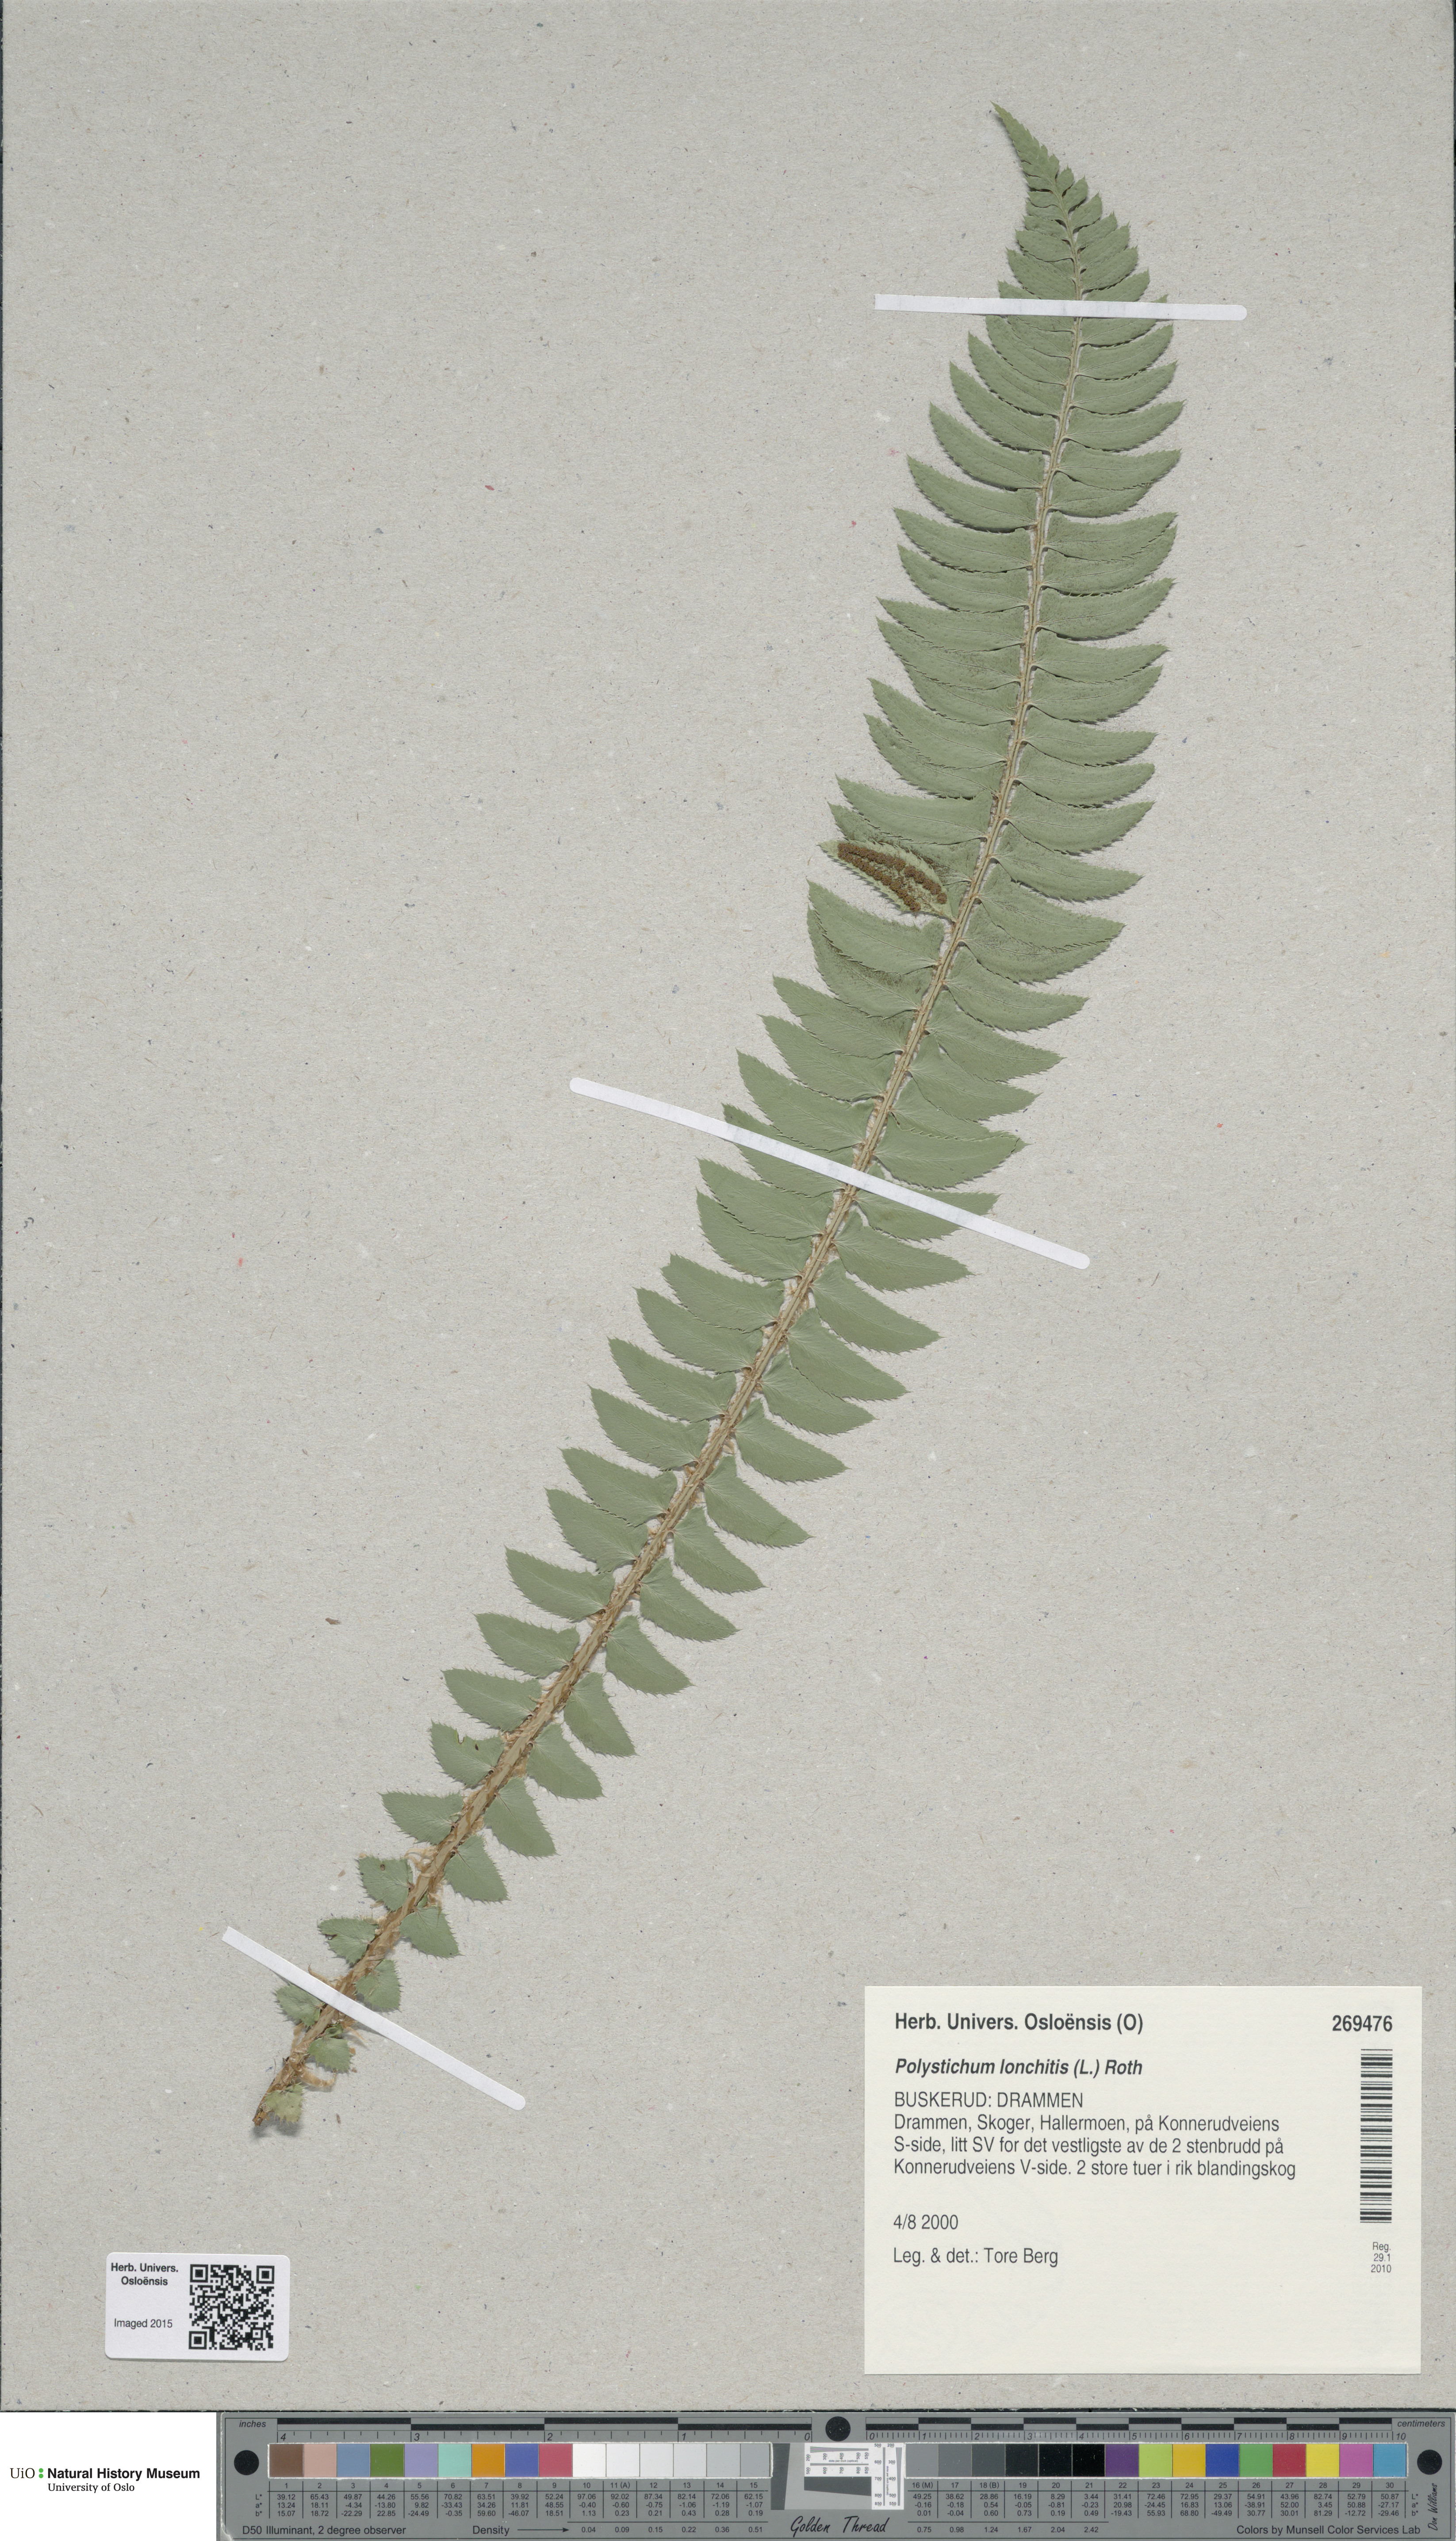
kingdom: Plantae
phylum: Tracheophyta
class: Polypodiopsida
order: Polypodiales
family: Dryopteridaceae
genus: Polystichum
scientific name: Polystichum lonchitis
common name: Holly fern
